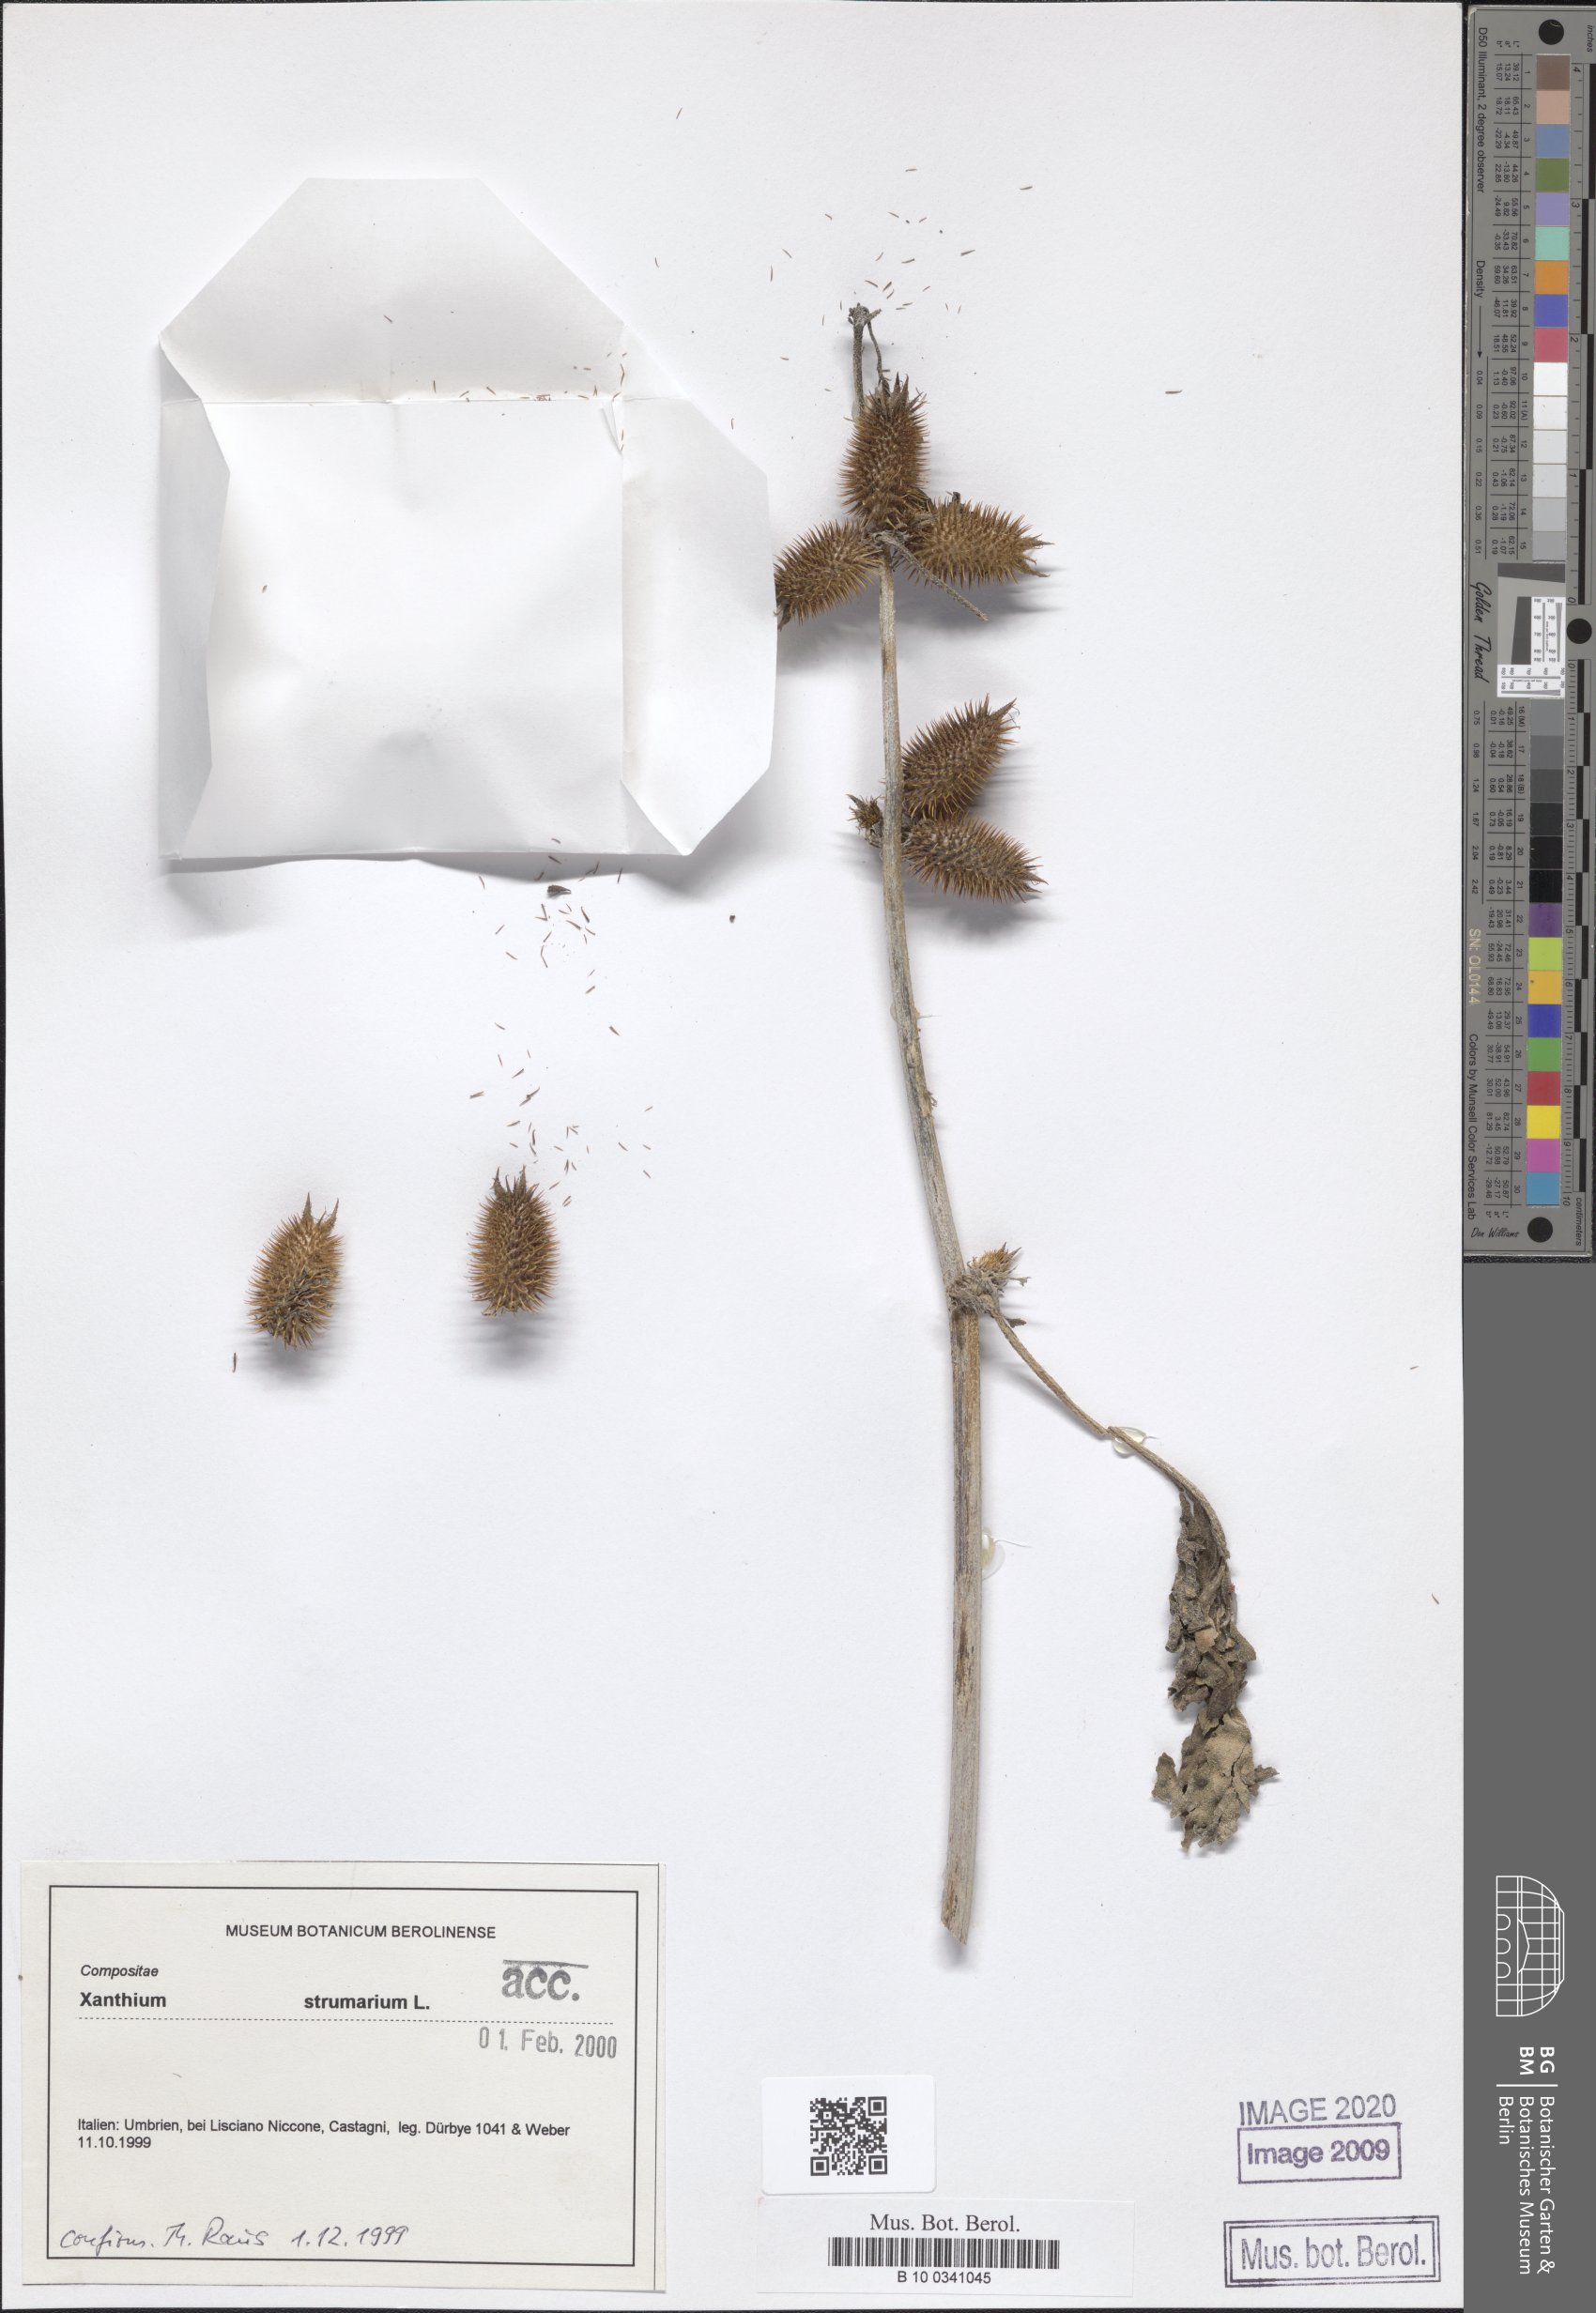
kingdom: Plantae
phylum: Tracheophyta
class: Magnoliopsida
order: Asterales
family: Asteraceae
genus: Xanthium
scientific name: Xanthium strumarium
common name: Rough cocklebur
